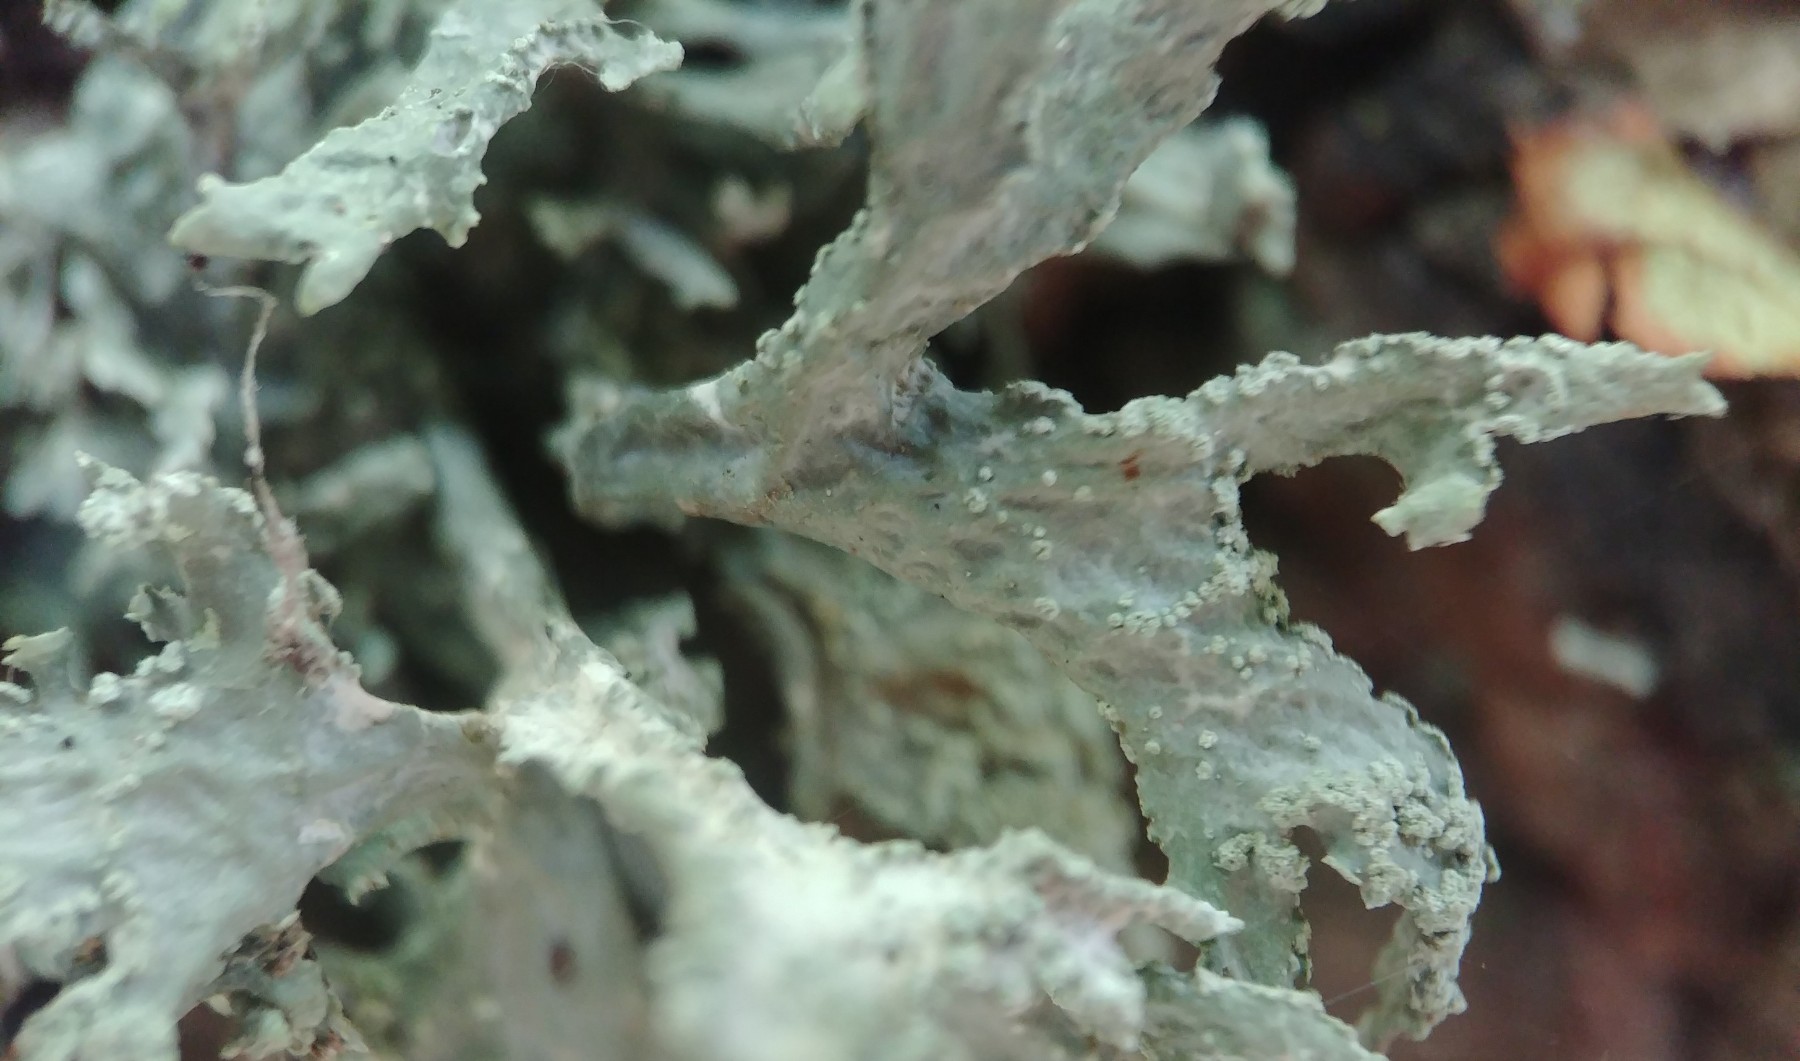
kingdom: Fungi
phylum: Ascomycota
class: Lecanoromycetes
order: Lecanorales
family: Parmeliaceae
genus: Evernia
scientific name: Evernia prunastri
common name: almindelig slåenlav
